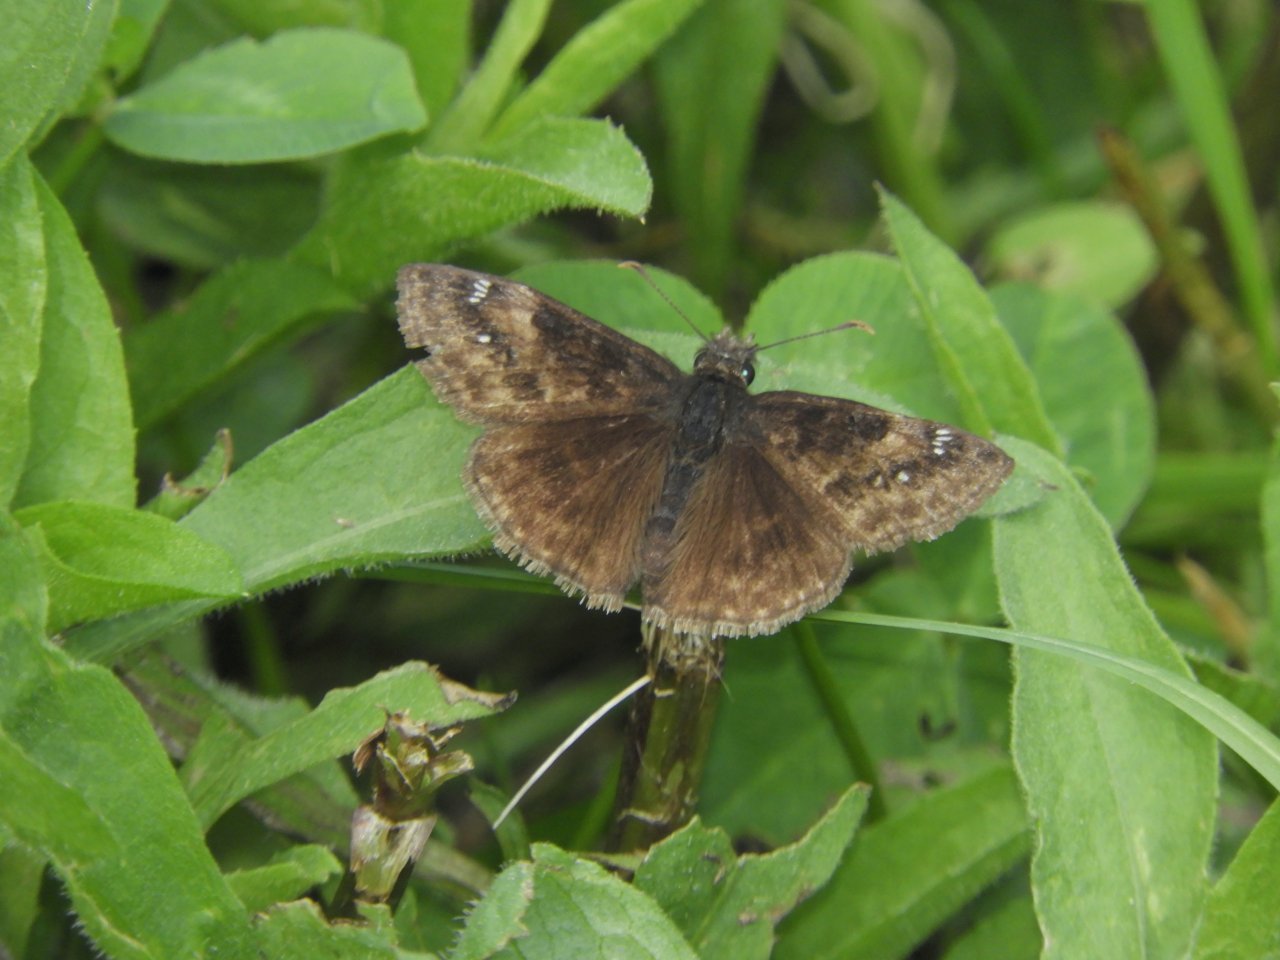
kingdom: Animalia
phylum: Arthropoda
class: Insecta
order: Lepidoptera
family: Hesperiidae
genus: Gesta
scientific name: Gesta
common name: Wild Indigo Duskywing
